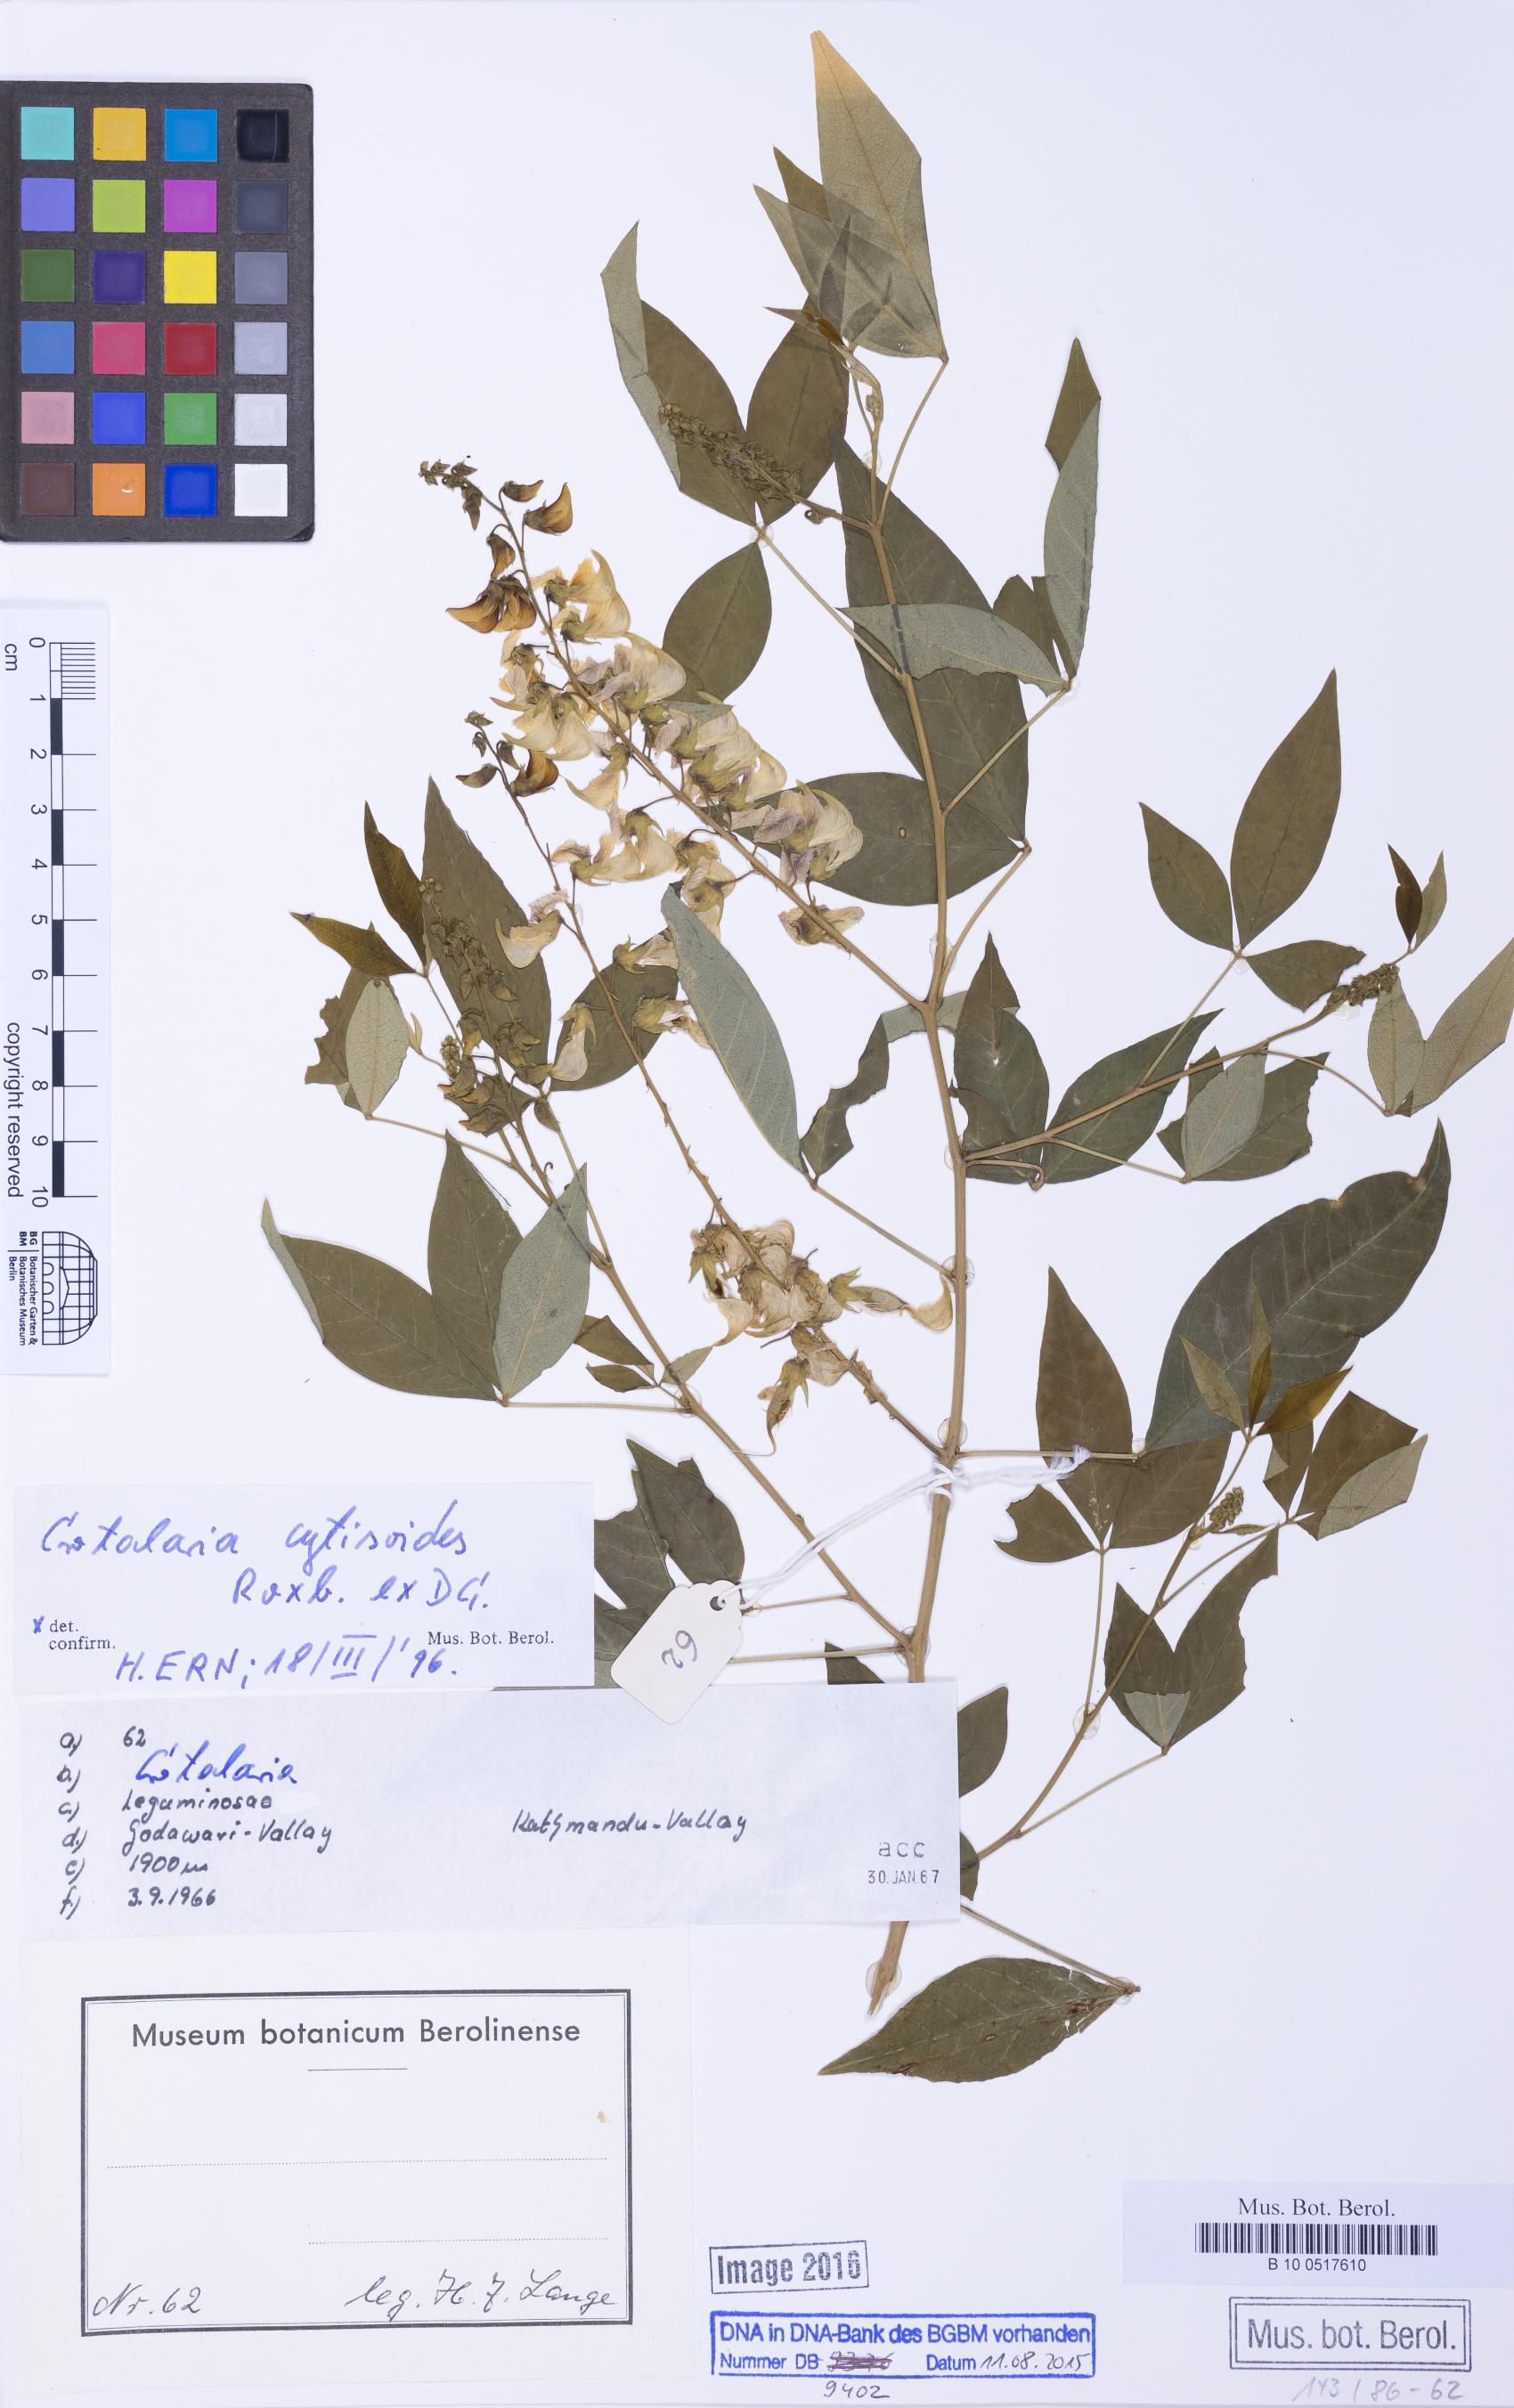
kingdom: Plantae
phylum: Tracheophyta
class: Magnoliopsida
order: Fabales
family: Fabaceae
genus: Crotalaria
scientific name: Crotalaria cytisoides
